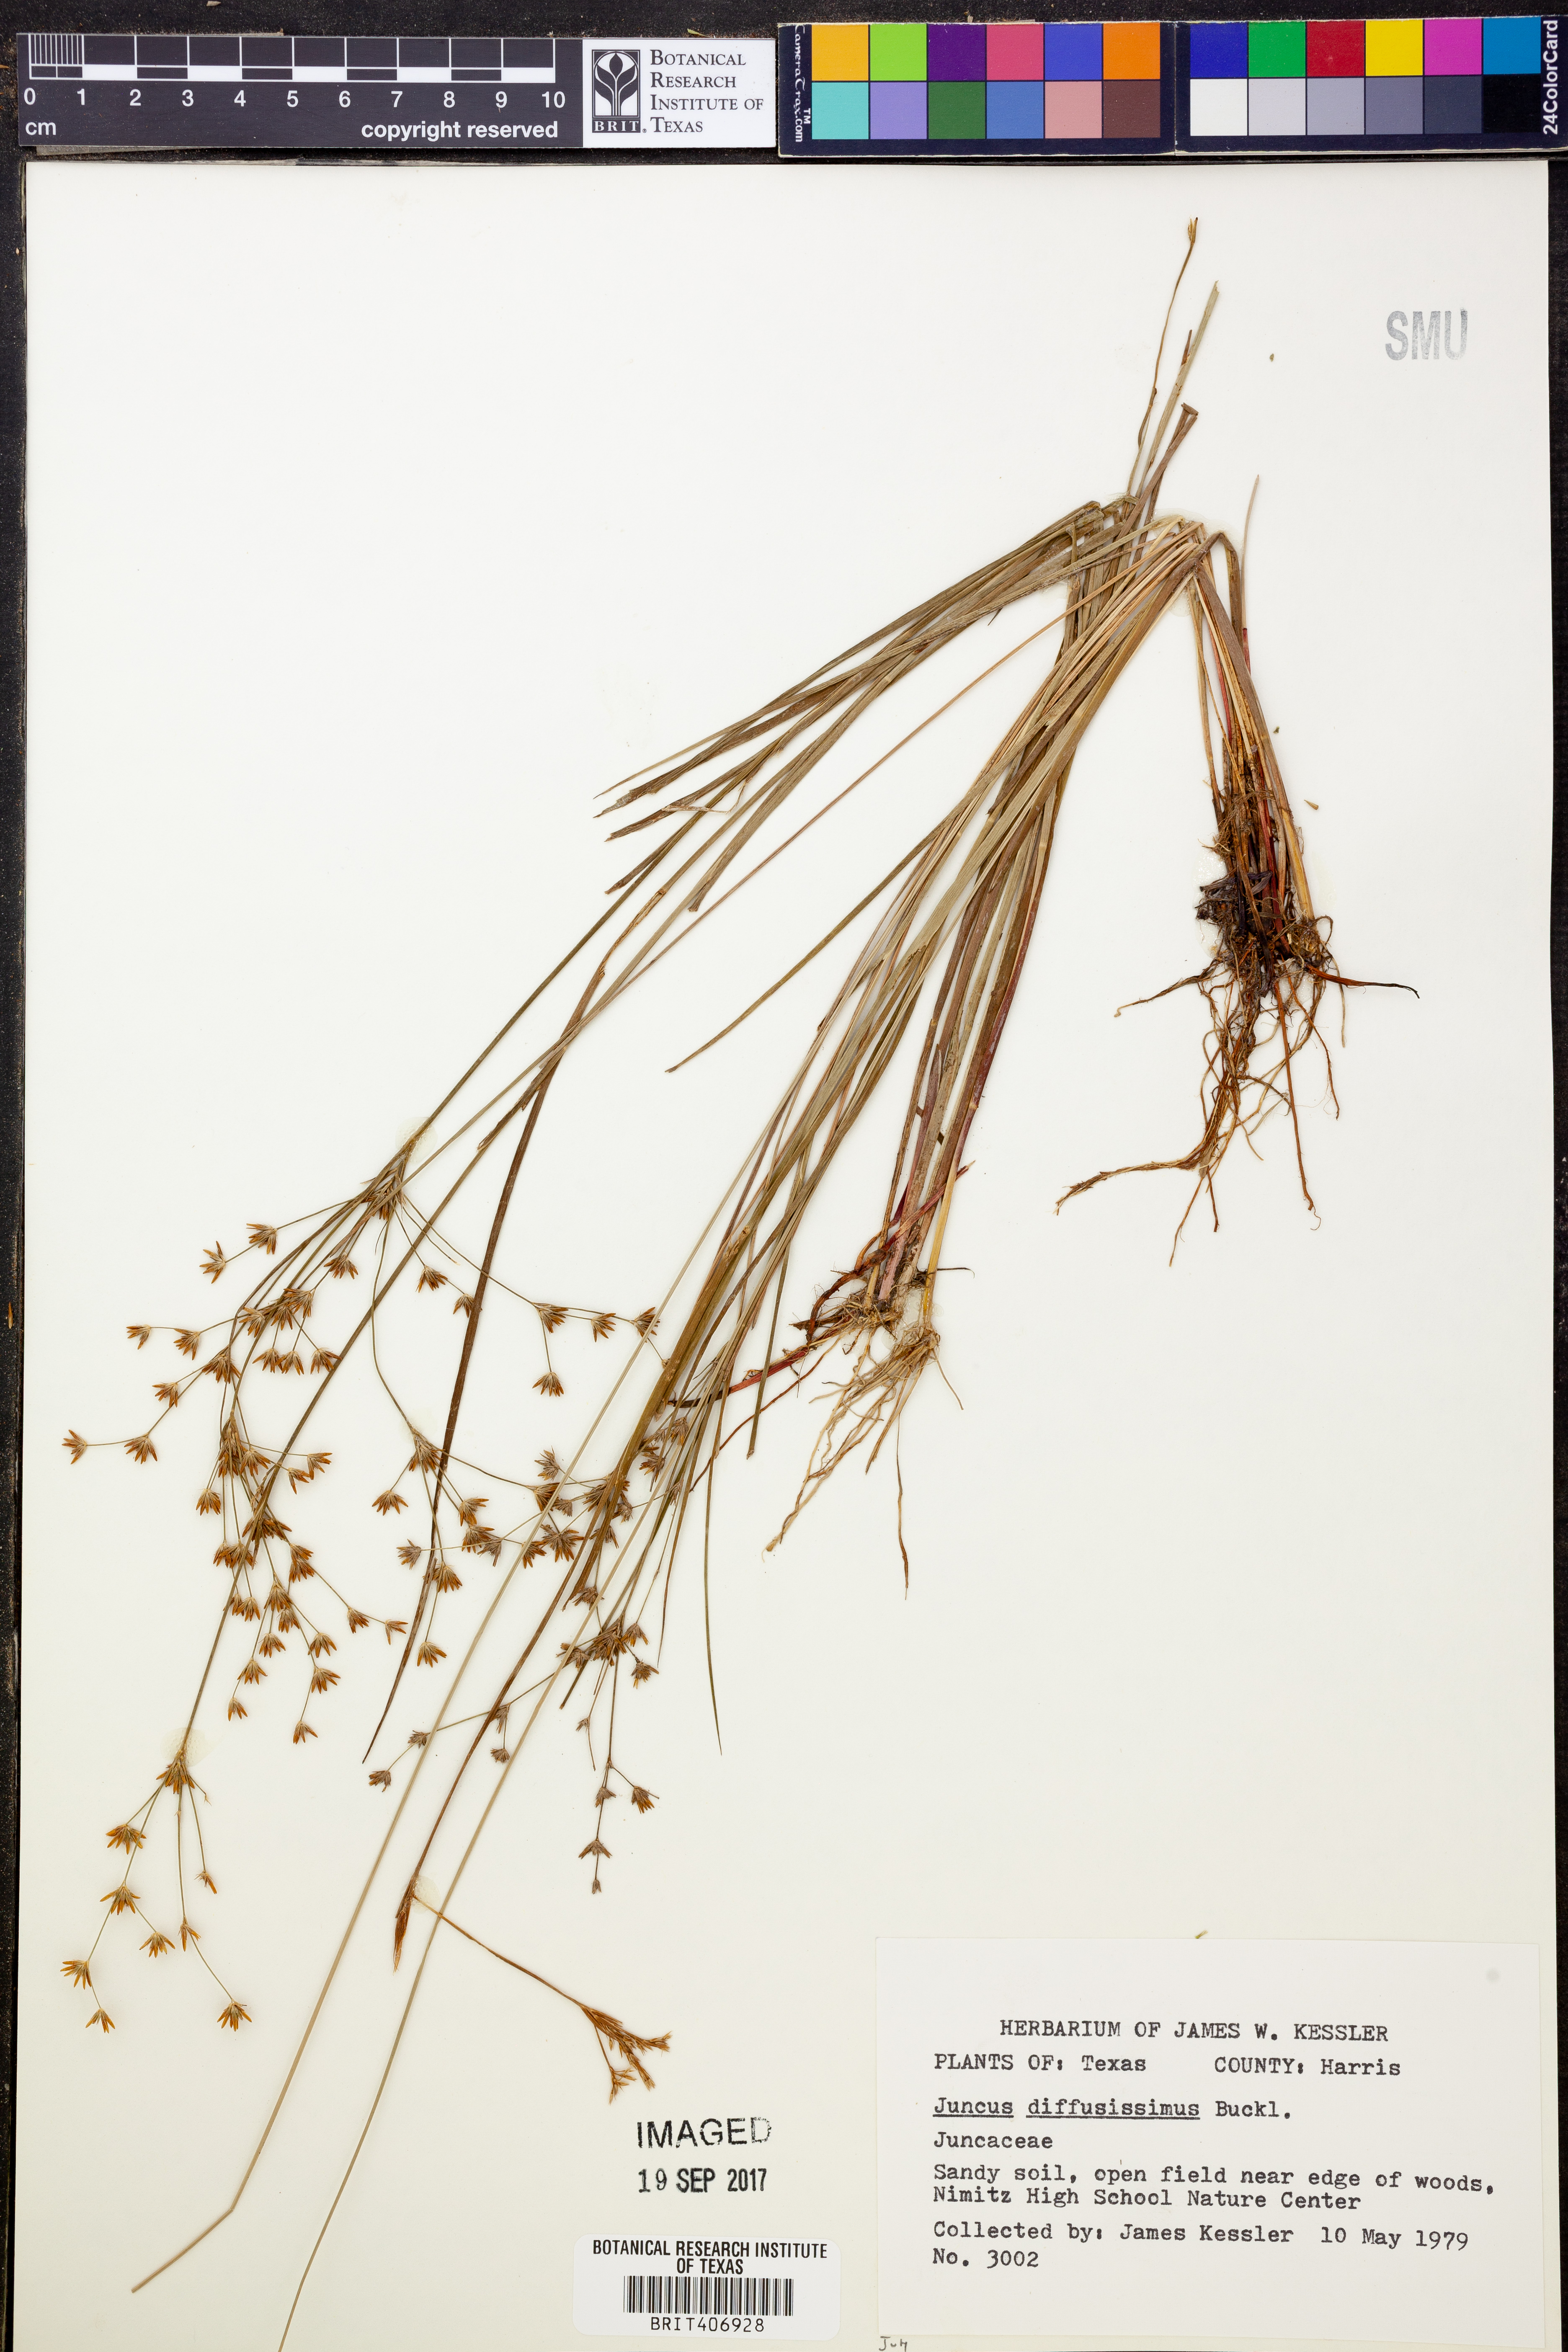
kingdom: Plantae
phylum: Tracheophyta
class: Liliopsida
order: Poales
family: Juncaceae
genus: Juncus
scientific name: Juncus diffusissimus
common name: Slimpod rush
